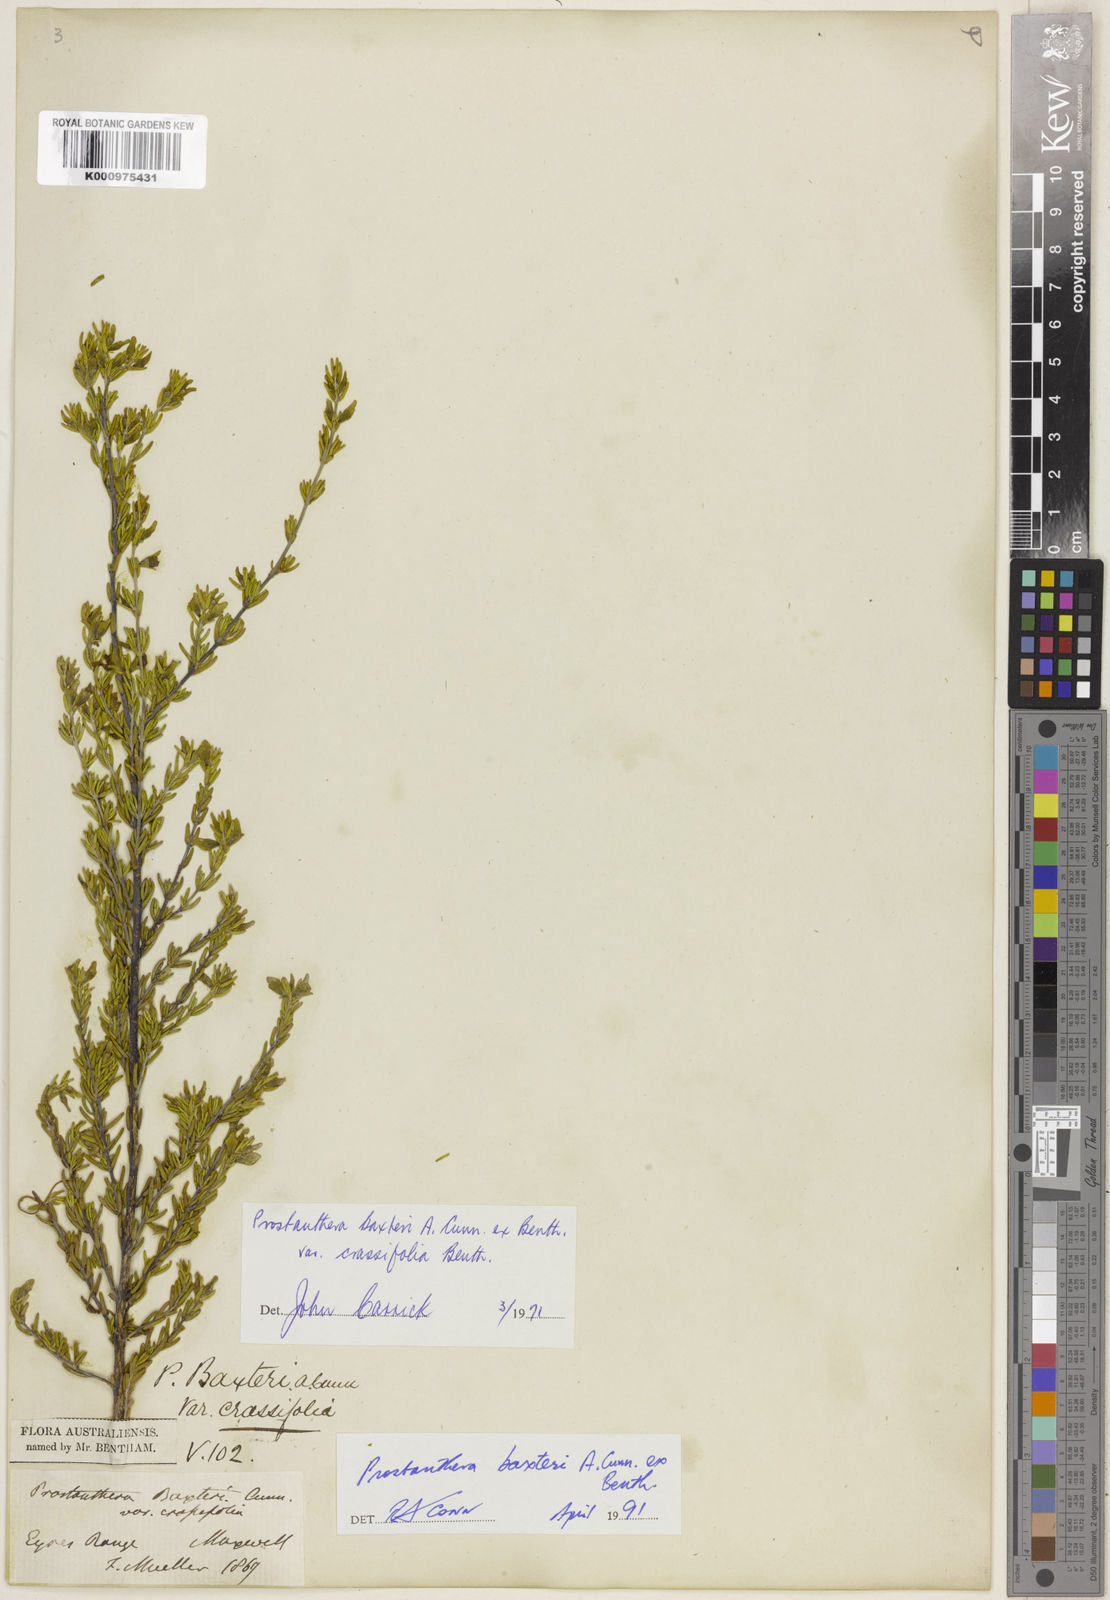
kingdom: Plantae
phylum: Tracheophyta
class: Magnoliopsida
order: Lamiales
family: Lamiaceae
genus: Prostanthera
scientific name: Prostanthera baxteri
